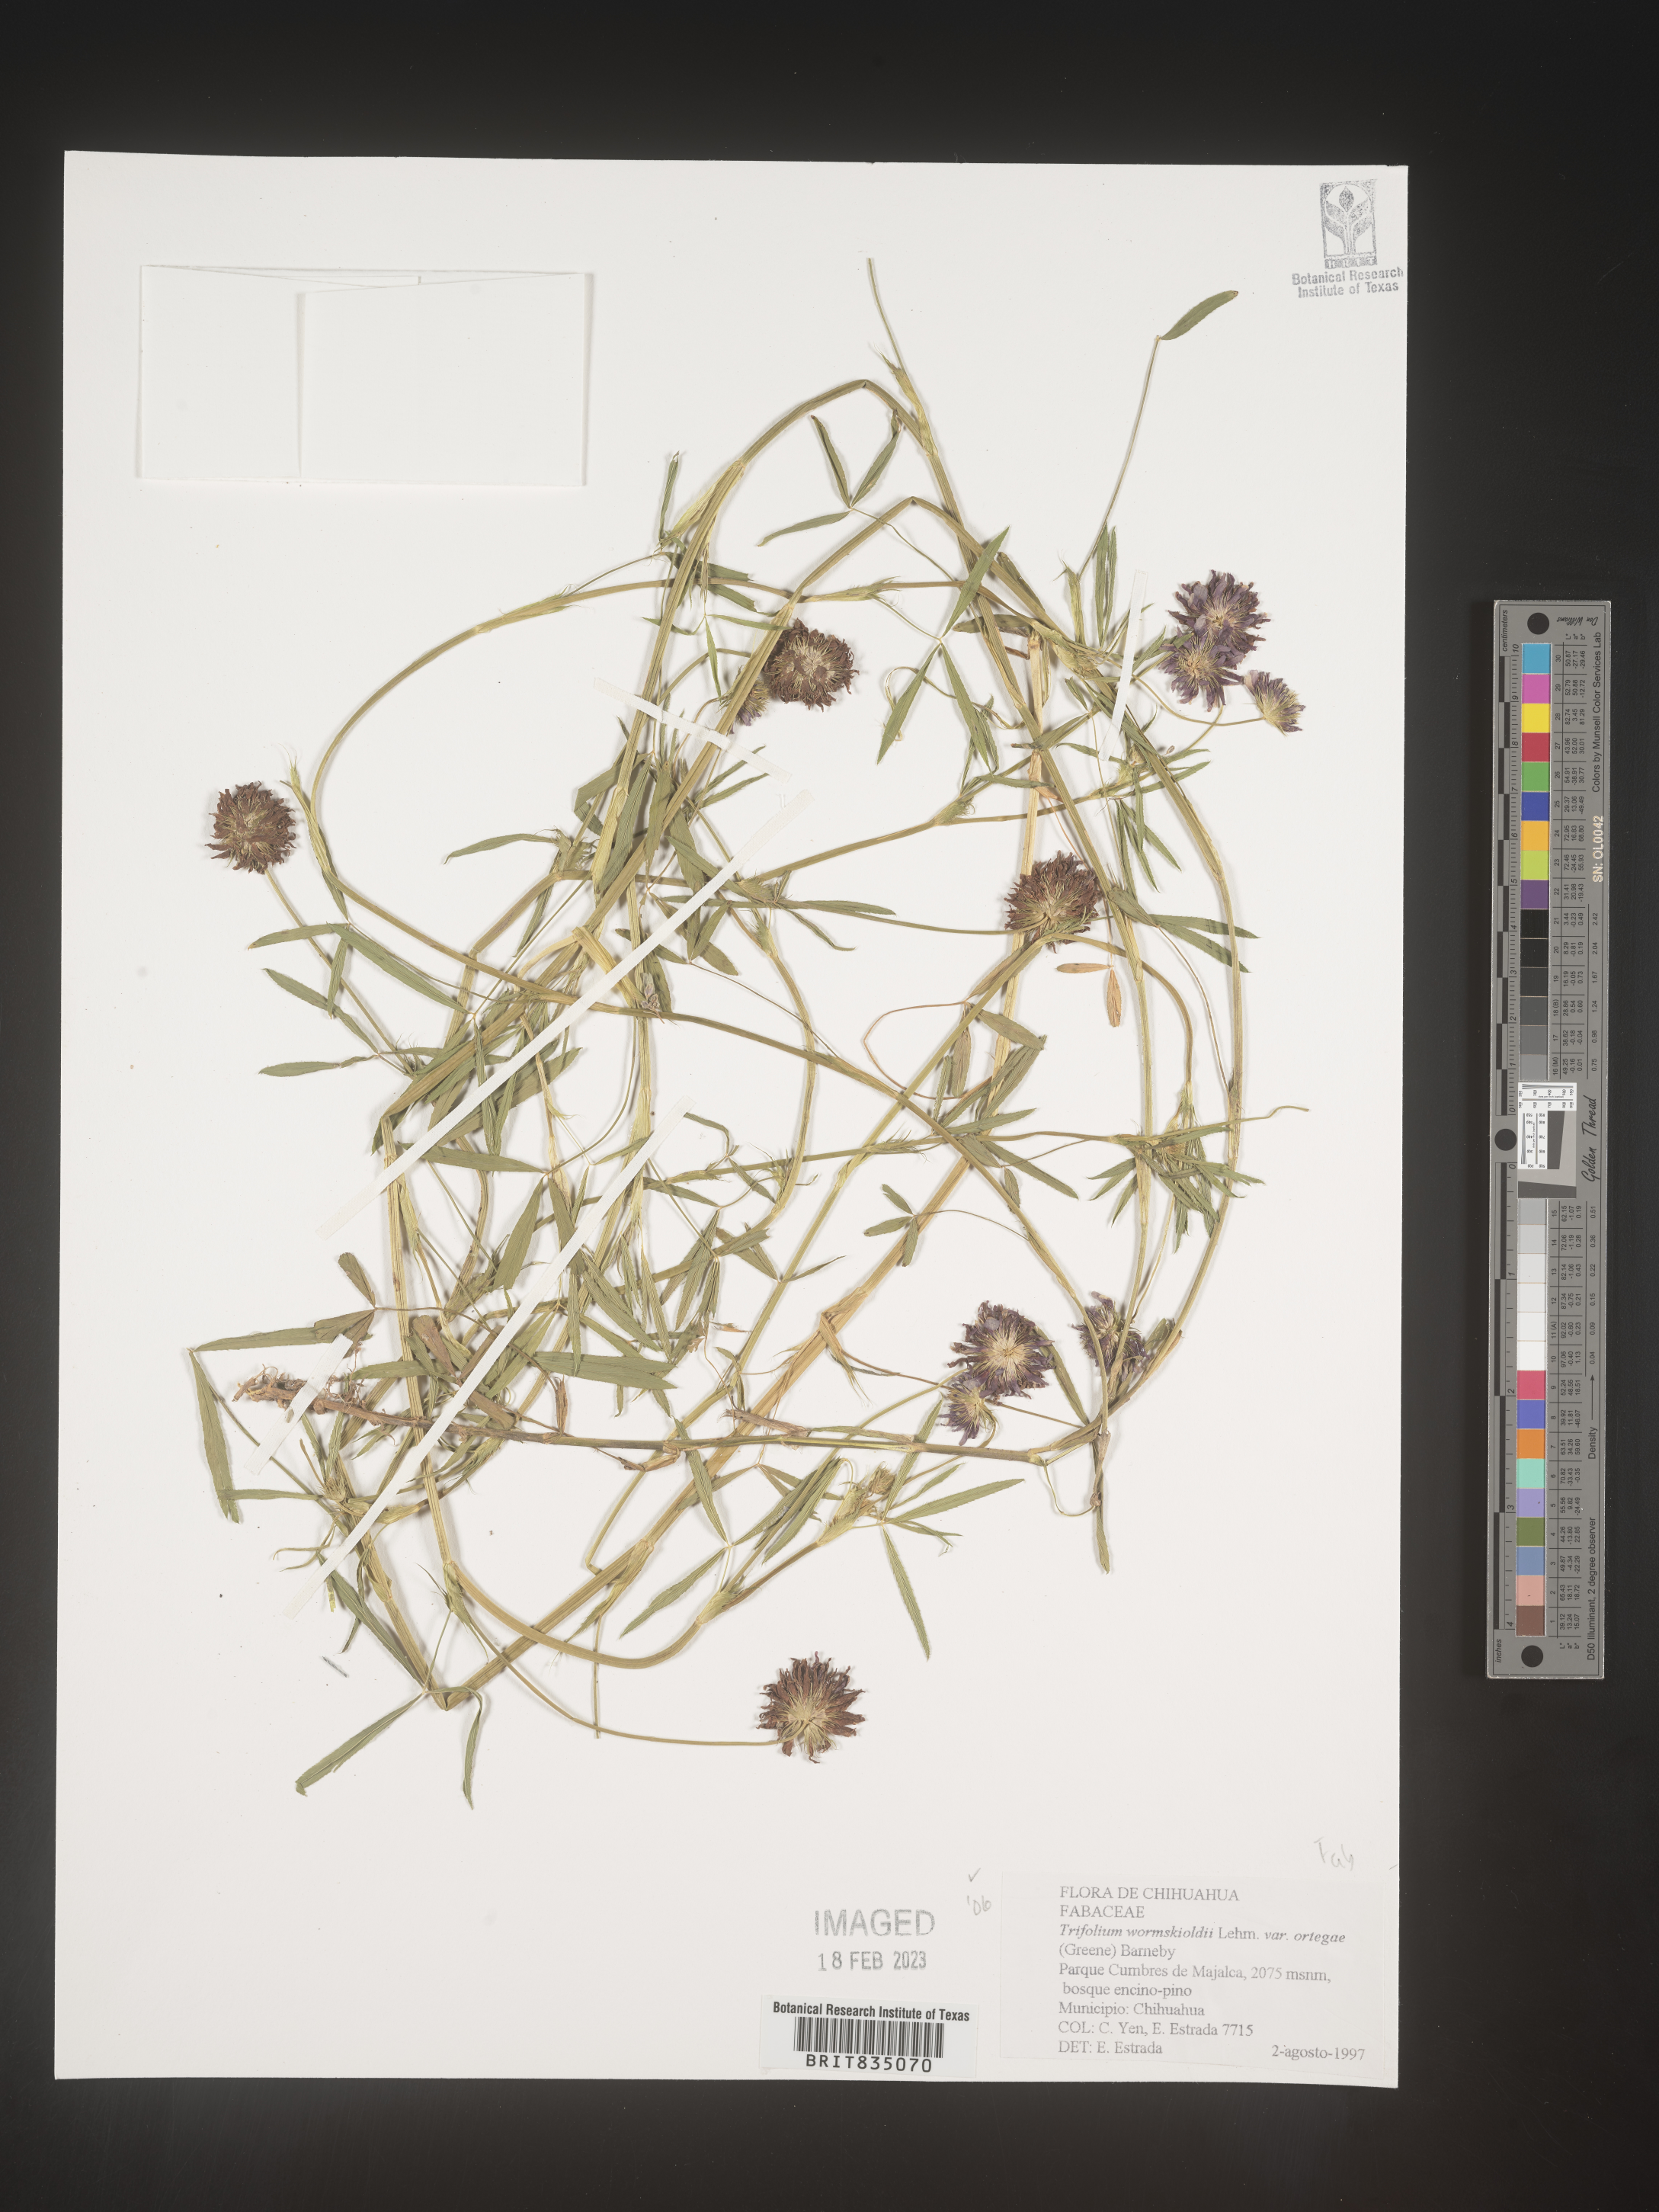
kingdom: Plantae
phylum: Tracheophyta
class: Magnoliopsida
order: Fabales
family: Fabaceae
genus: Trifolium
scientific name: Trifolium
